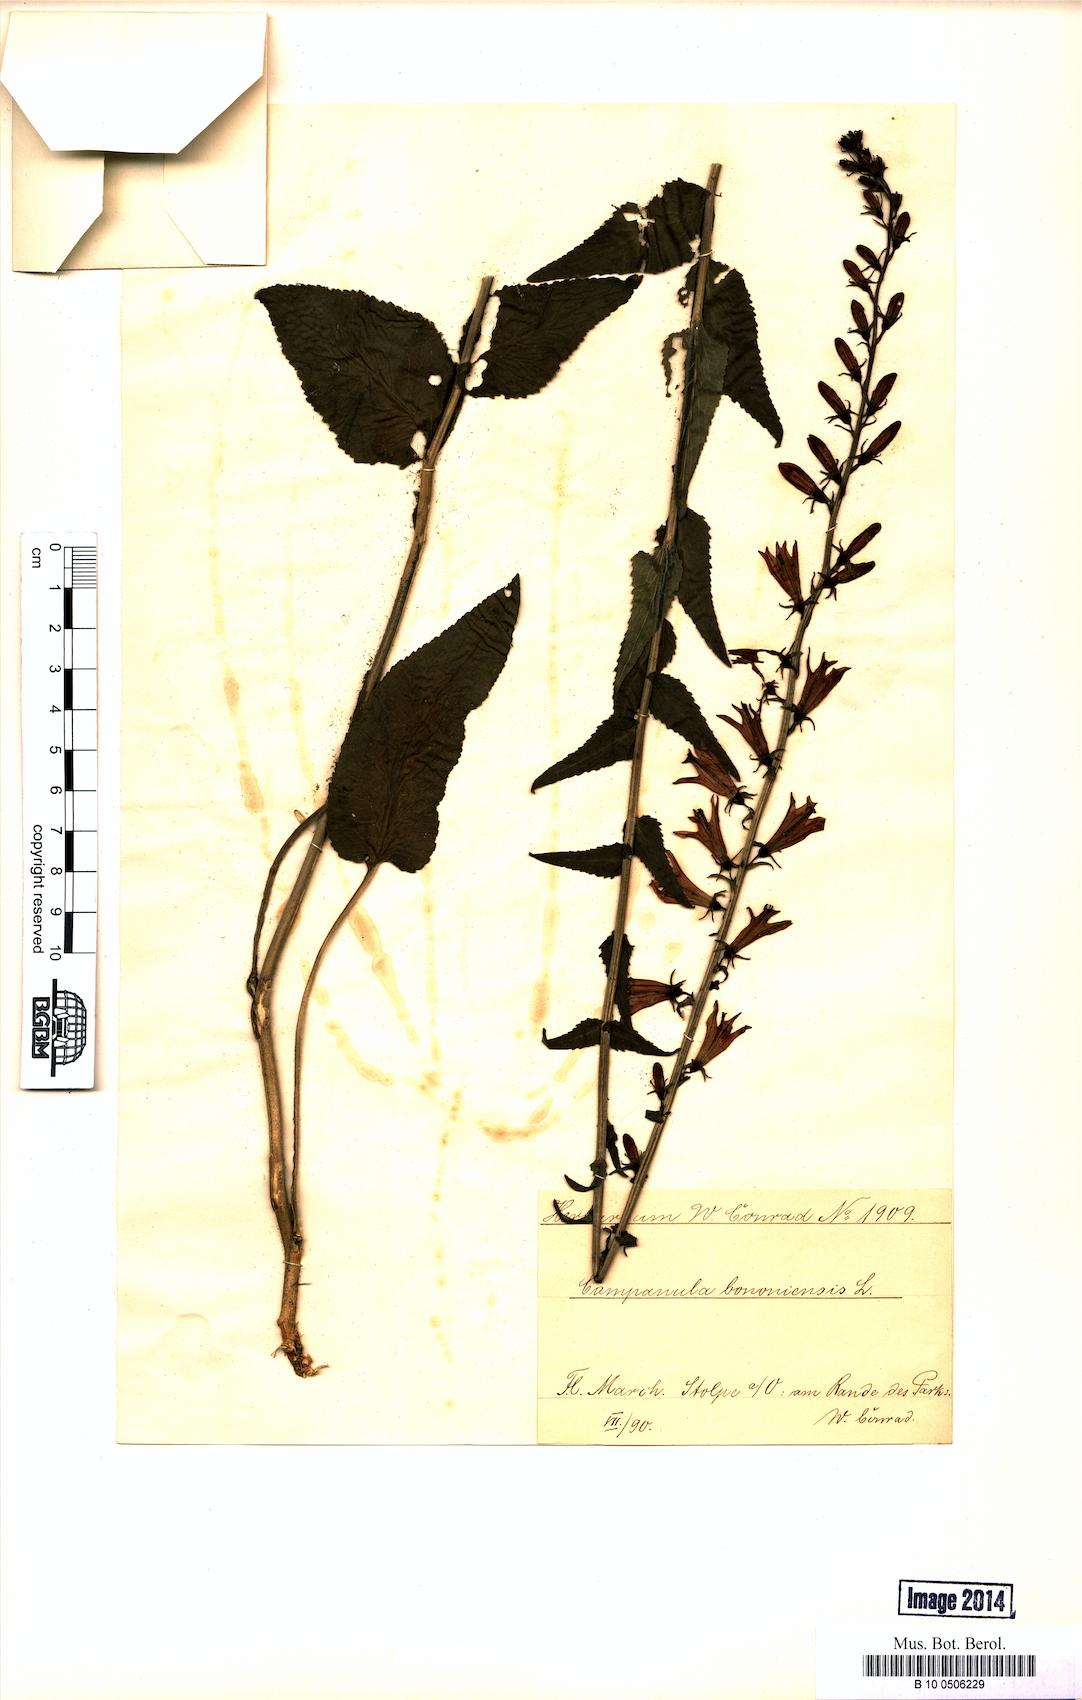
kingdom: Plantae
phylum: Tracheophyta
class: Magnoliopsida
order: Asterales
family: Campanulaceae
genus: Campanula
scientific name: Campanula bononiensis
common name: Pale bellflower
